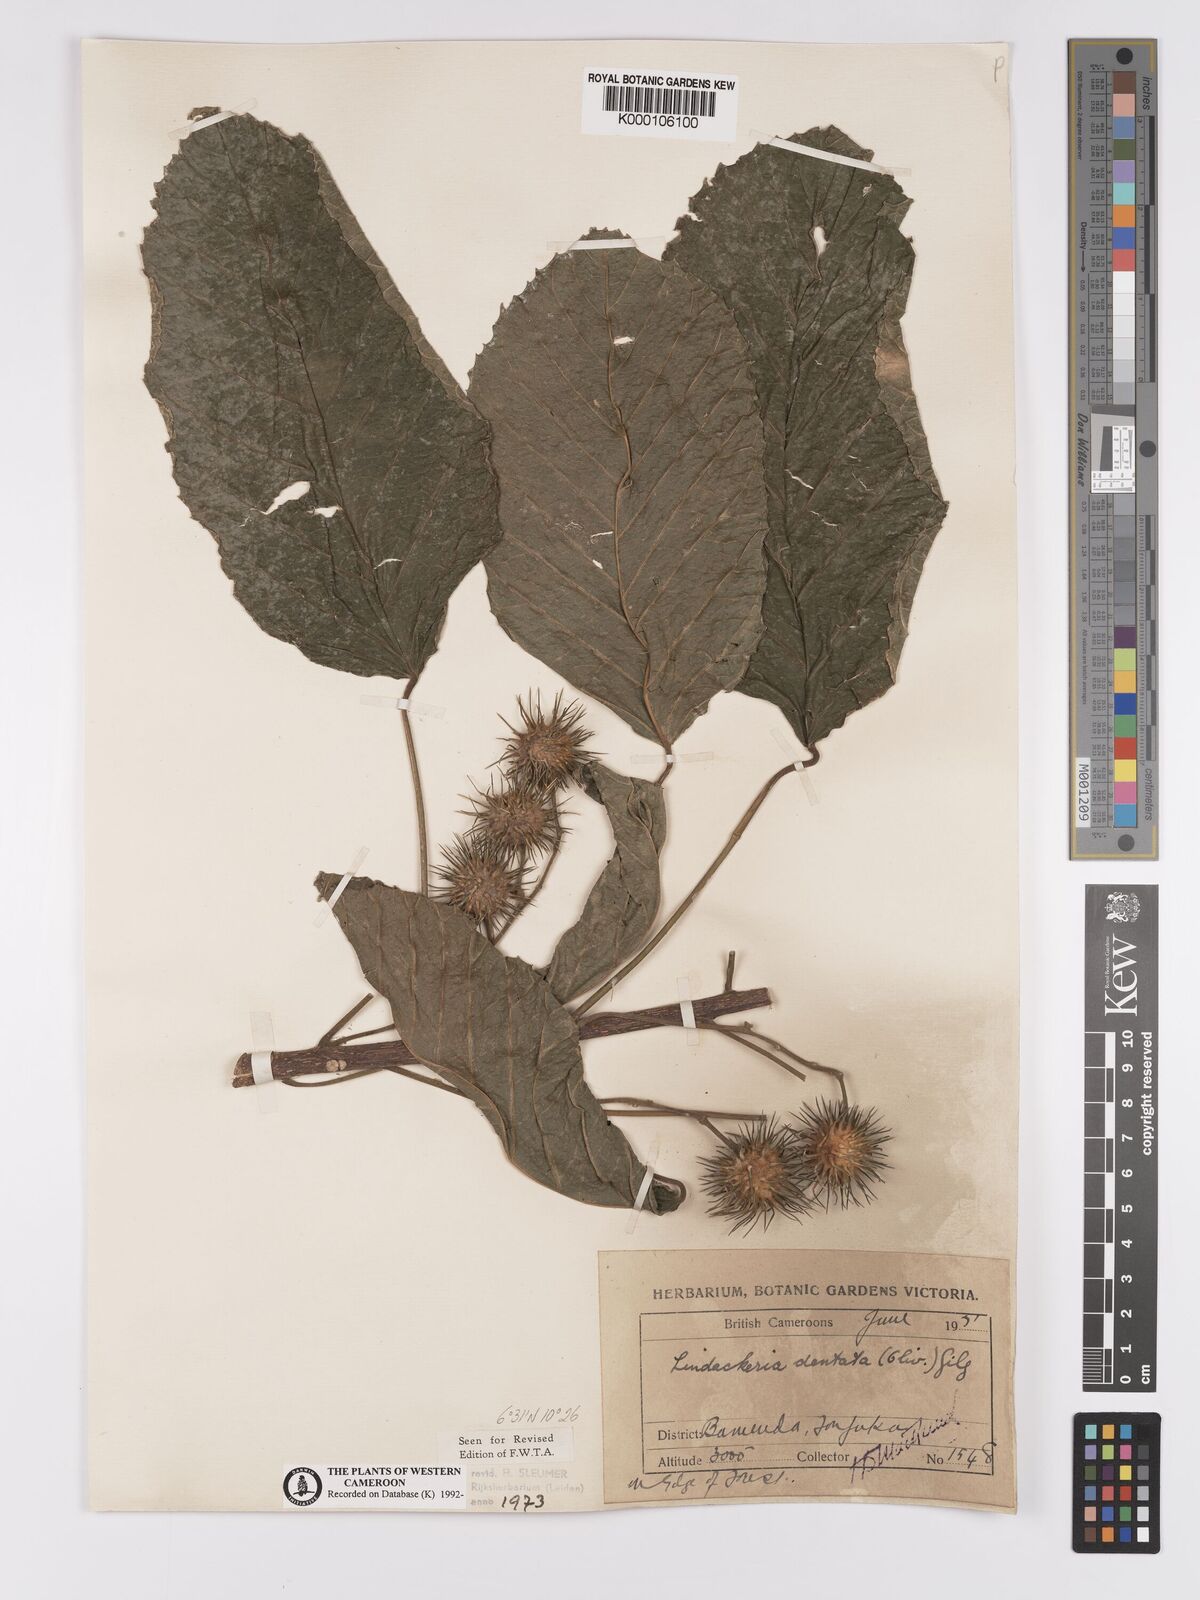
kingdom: Plantae
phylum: Tracheophyta
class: Magnoliopsida
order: Malpighiales
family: Achariaceae
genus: Lindackeria
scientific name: Lindackeria dentata
